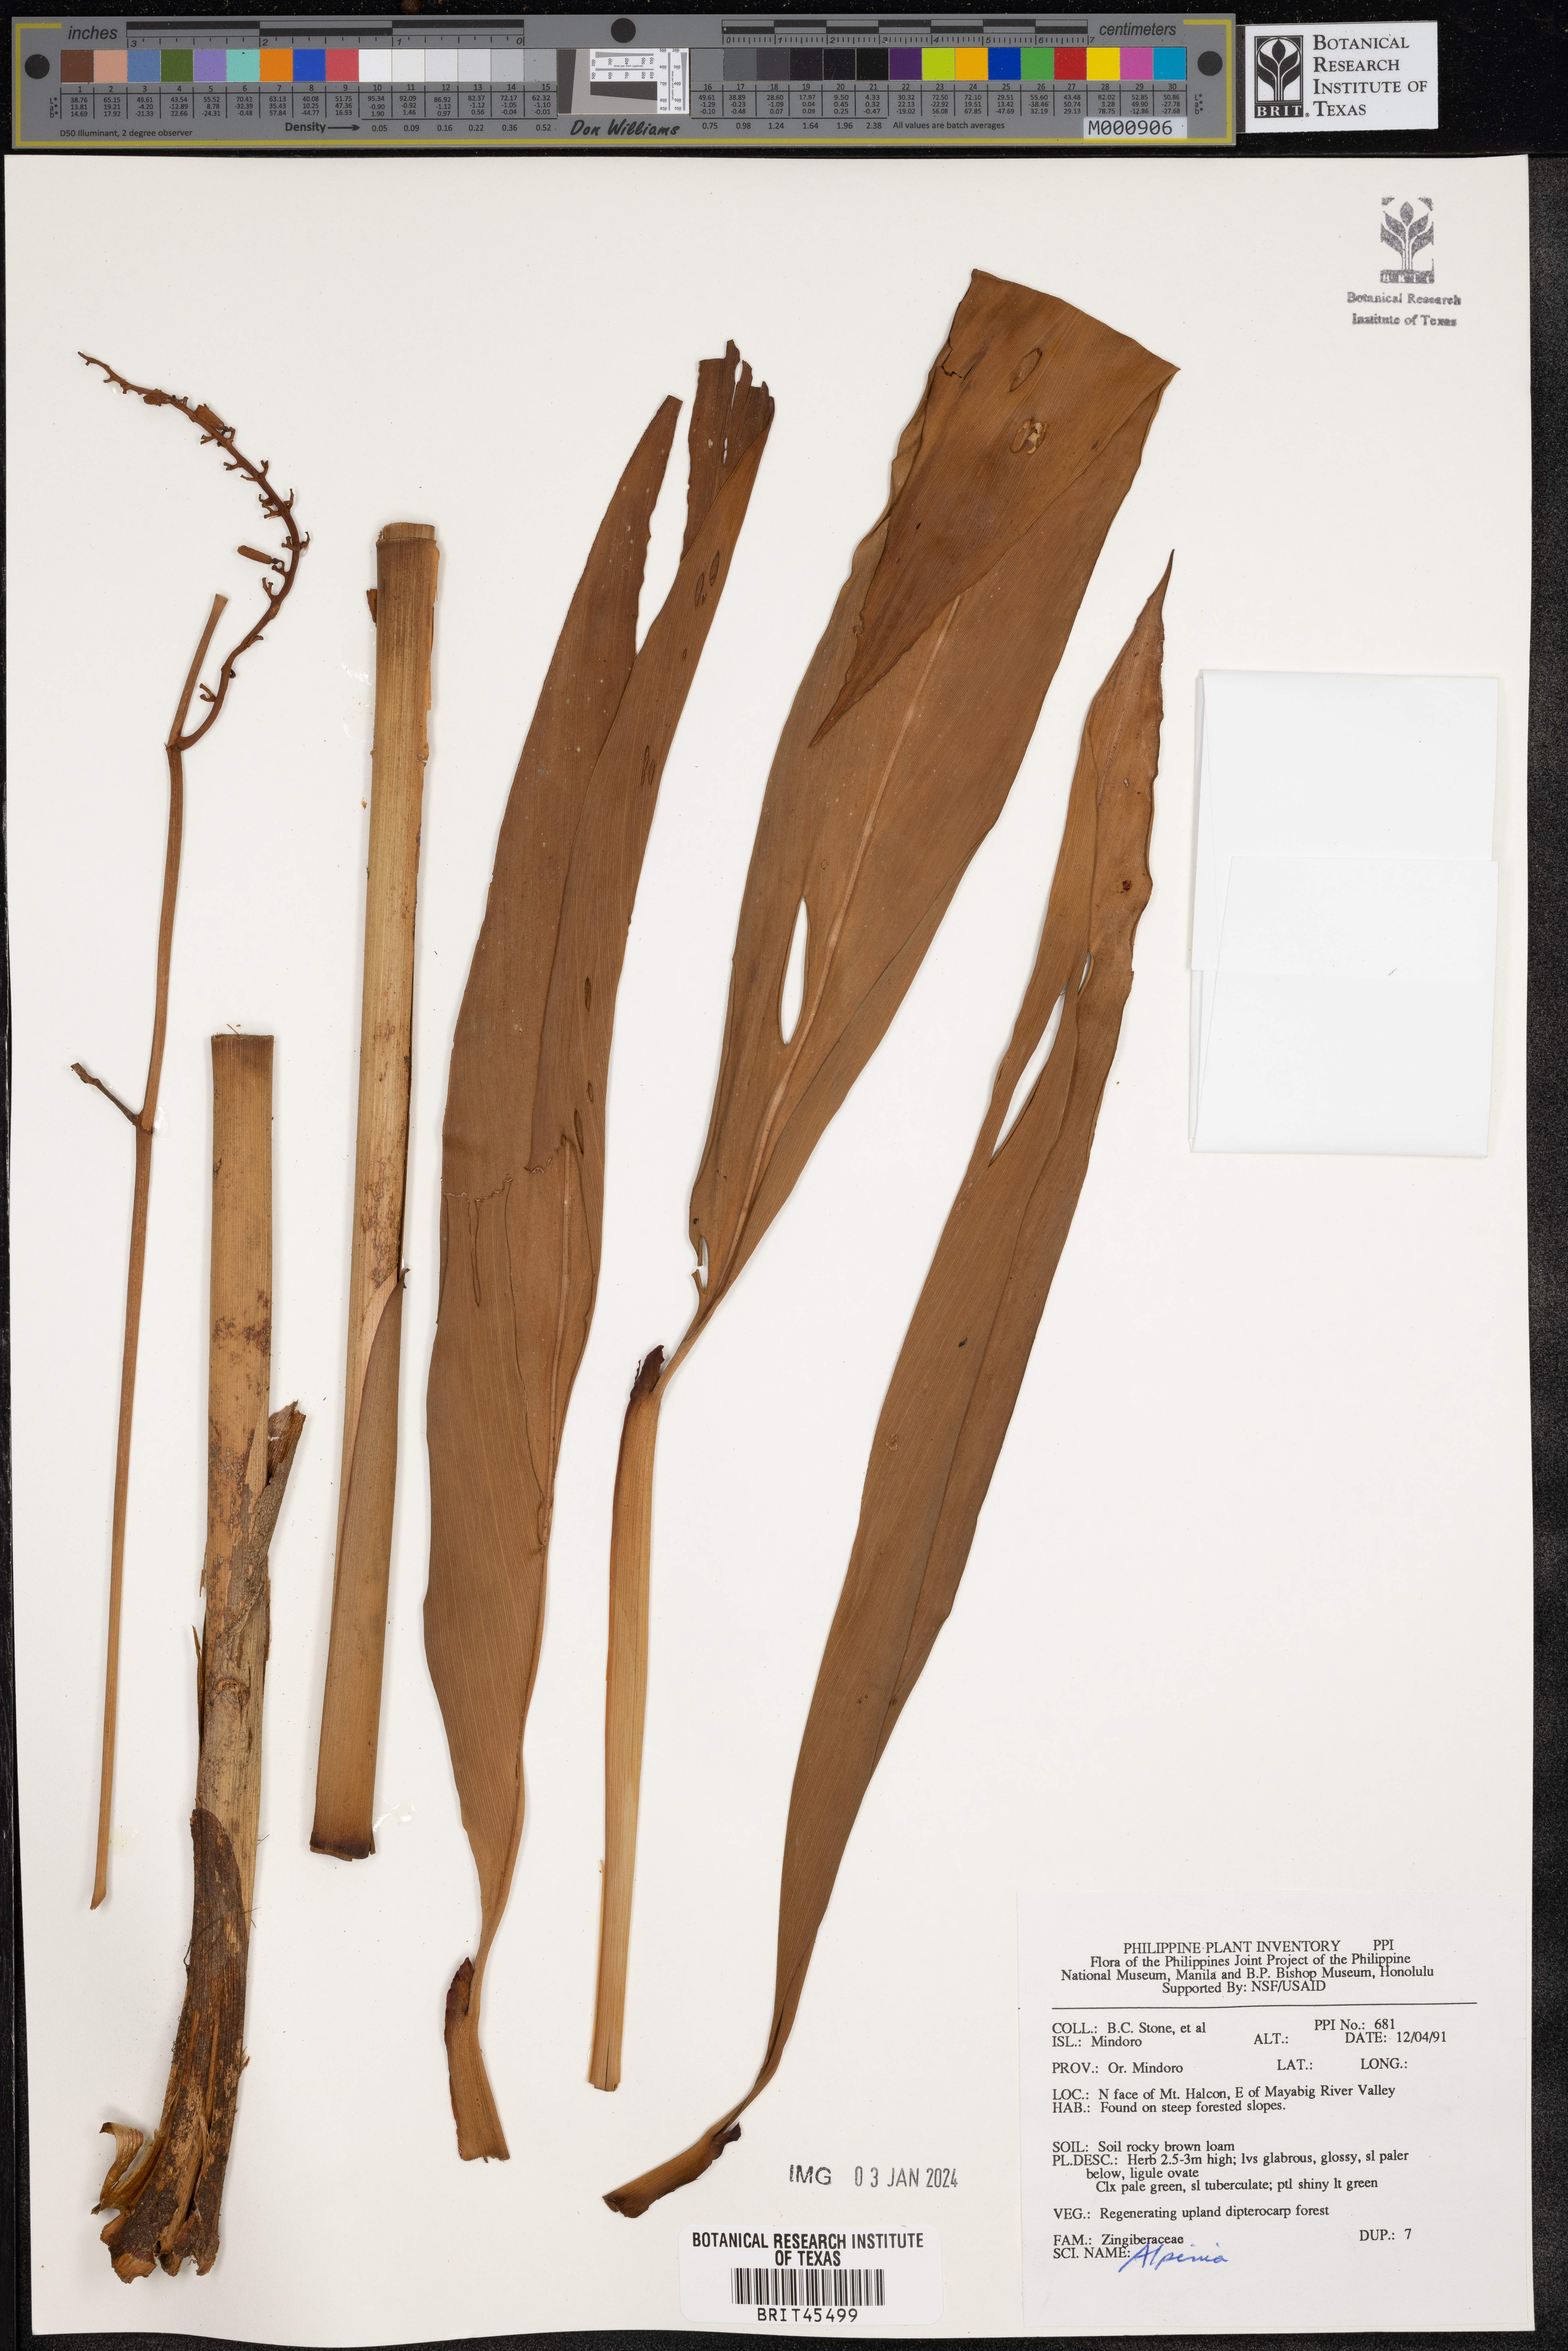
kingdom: Plantae
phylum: Tracheophyta
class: Liliopsida
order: Zingiberales
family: Zingiberaceae
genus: Alpinia
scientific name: Alpinia
